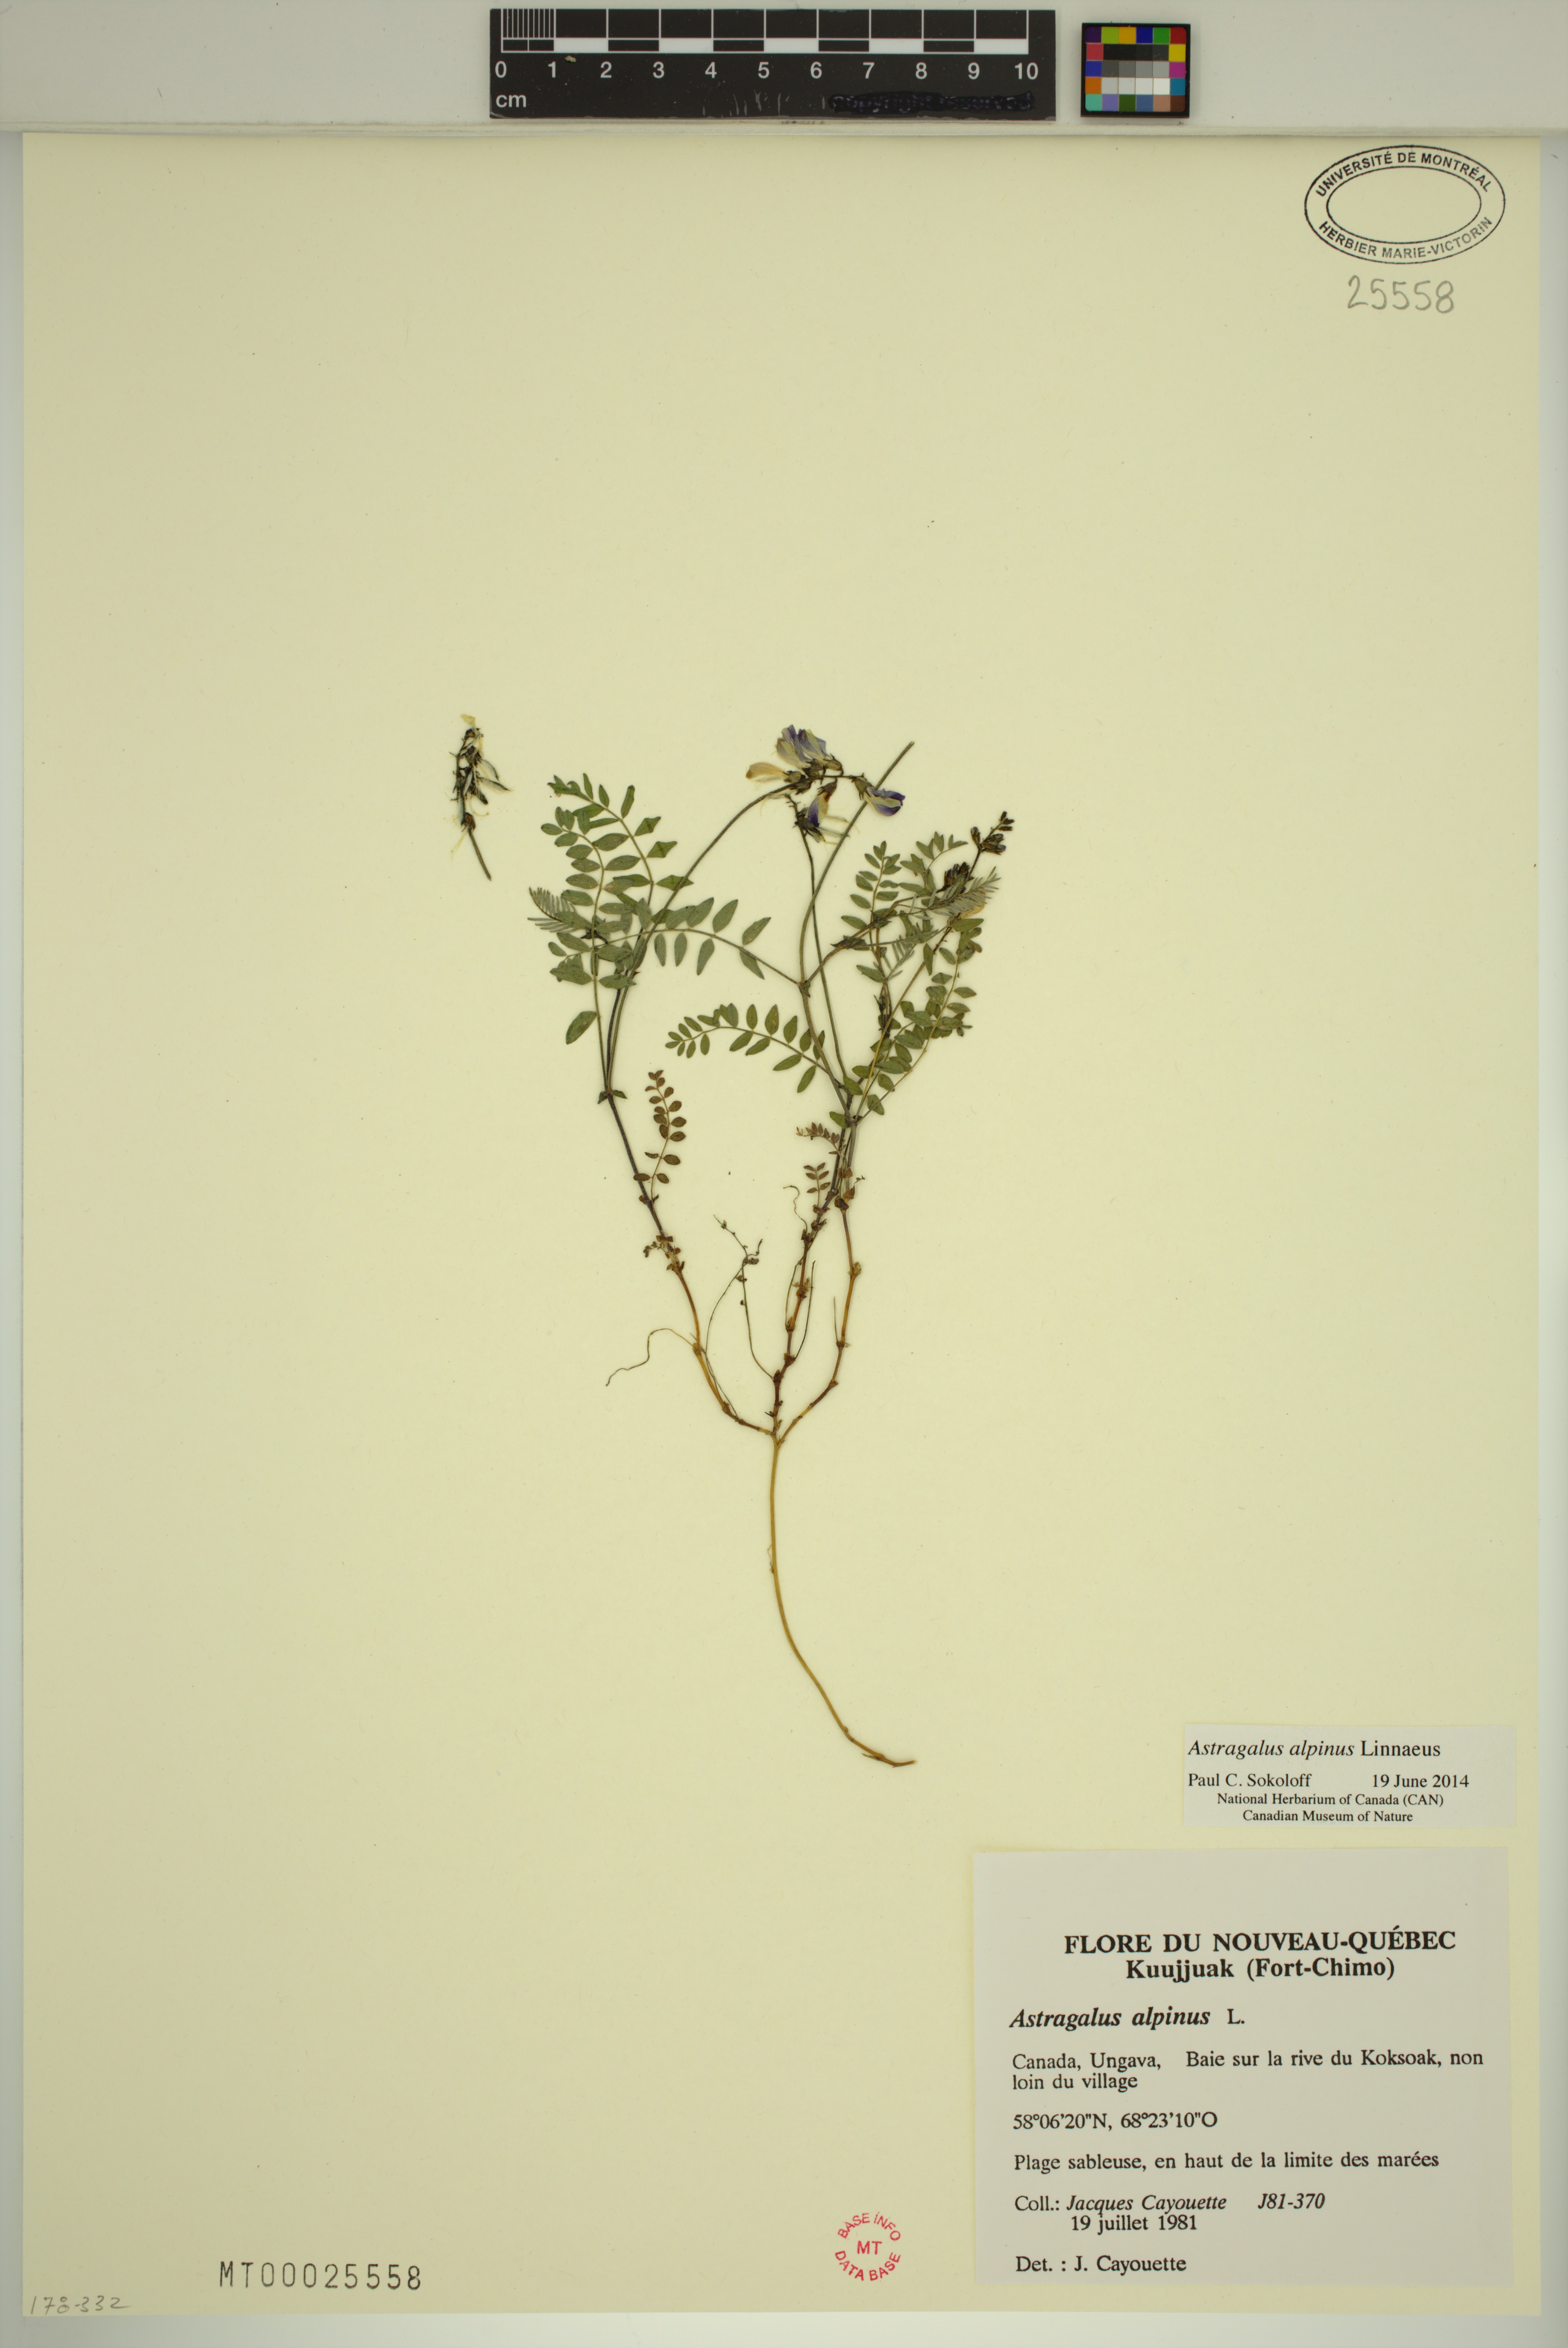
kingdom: Plantae
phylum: Tracheophyta
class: Magnoliopsida
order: Fabales
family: Fabaceae
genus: Astragalus
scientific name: Astragalus alpinus
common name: Alpine milk-vetch
